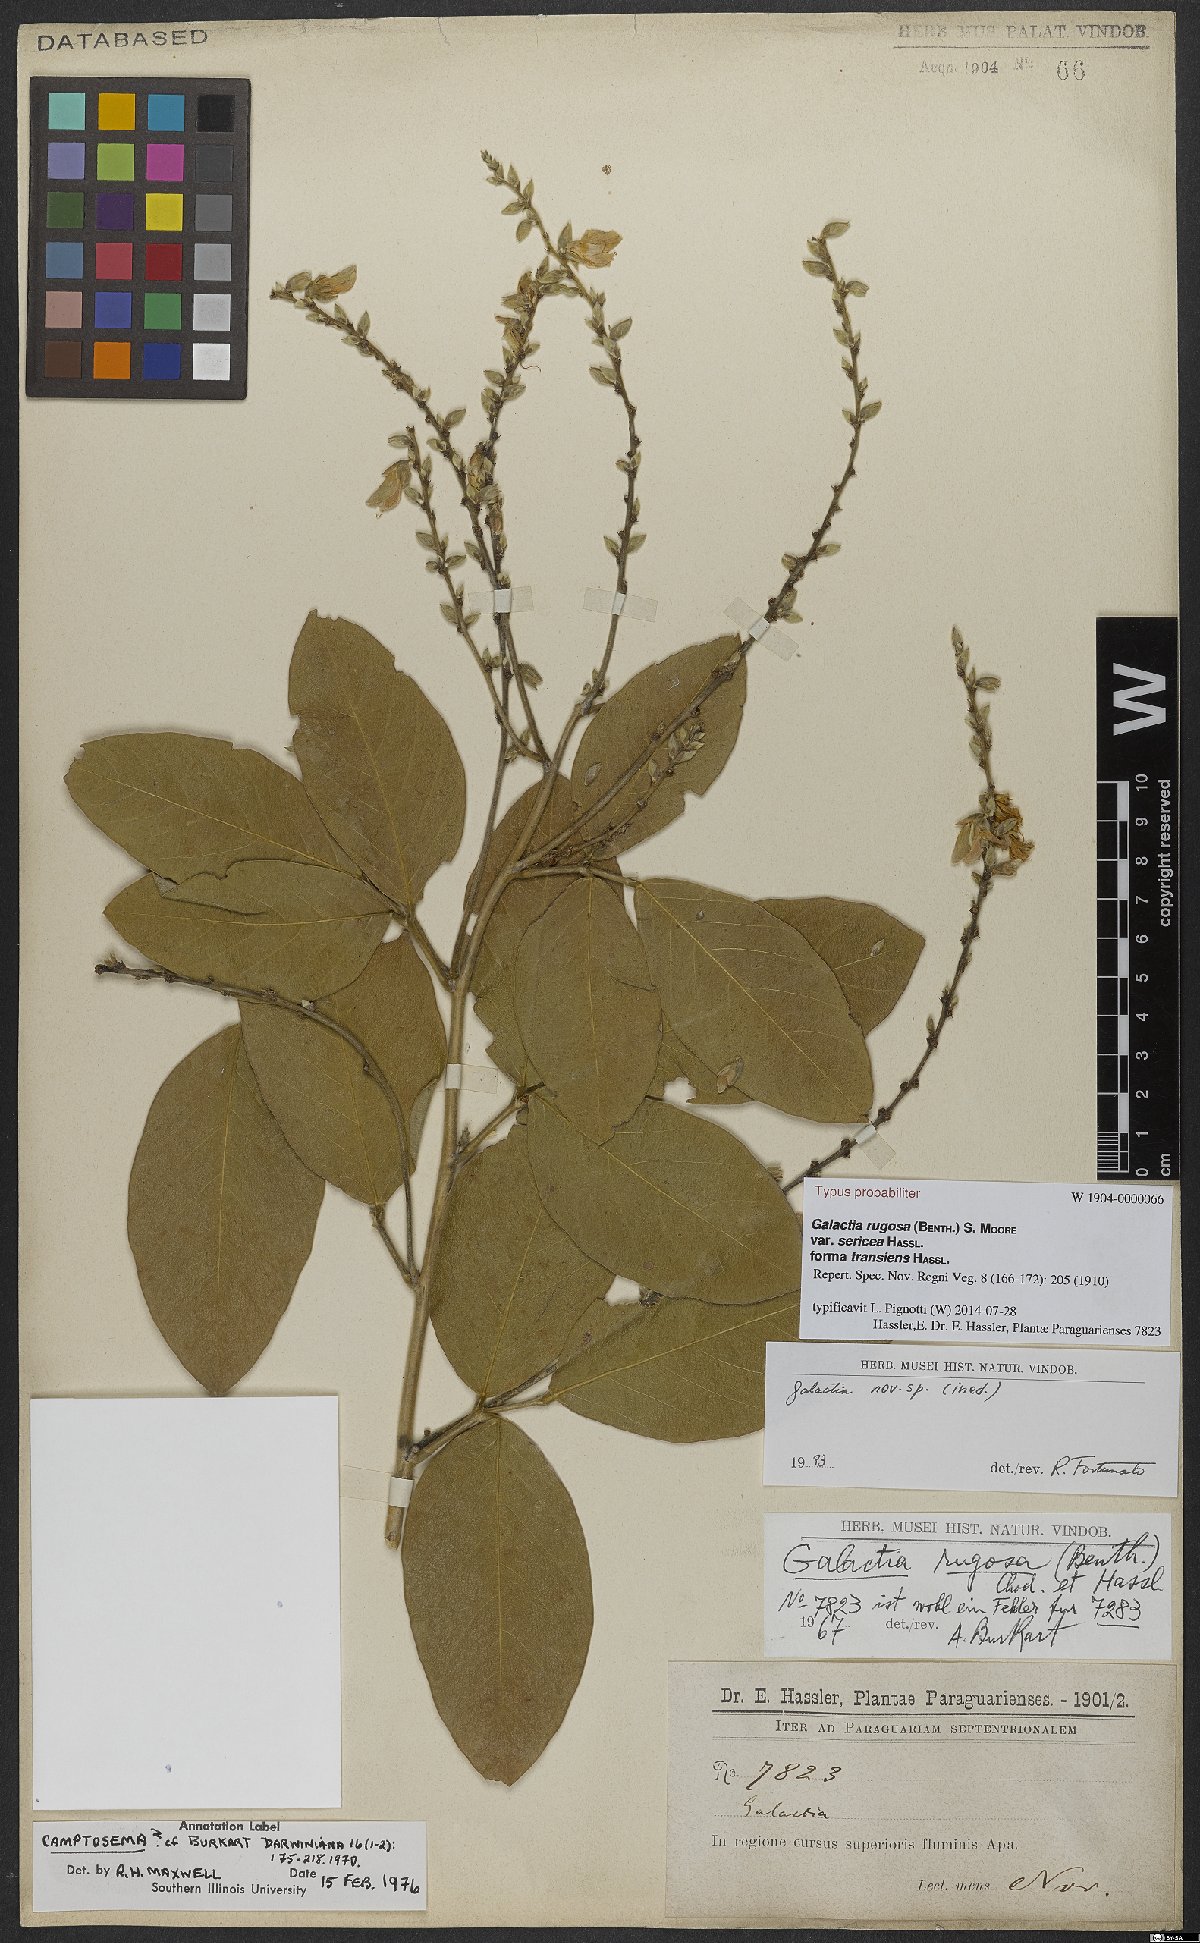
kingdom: Plantae
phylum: Tracheophyta
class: Magnoliopsida
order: Fabales
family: Fabaceae
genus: Cerradicola
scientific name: Cerradicola elliptica
